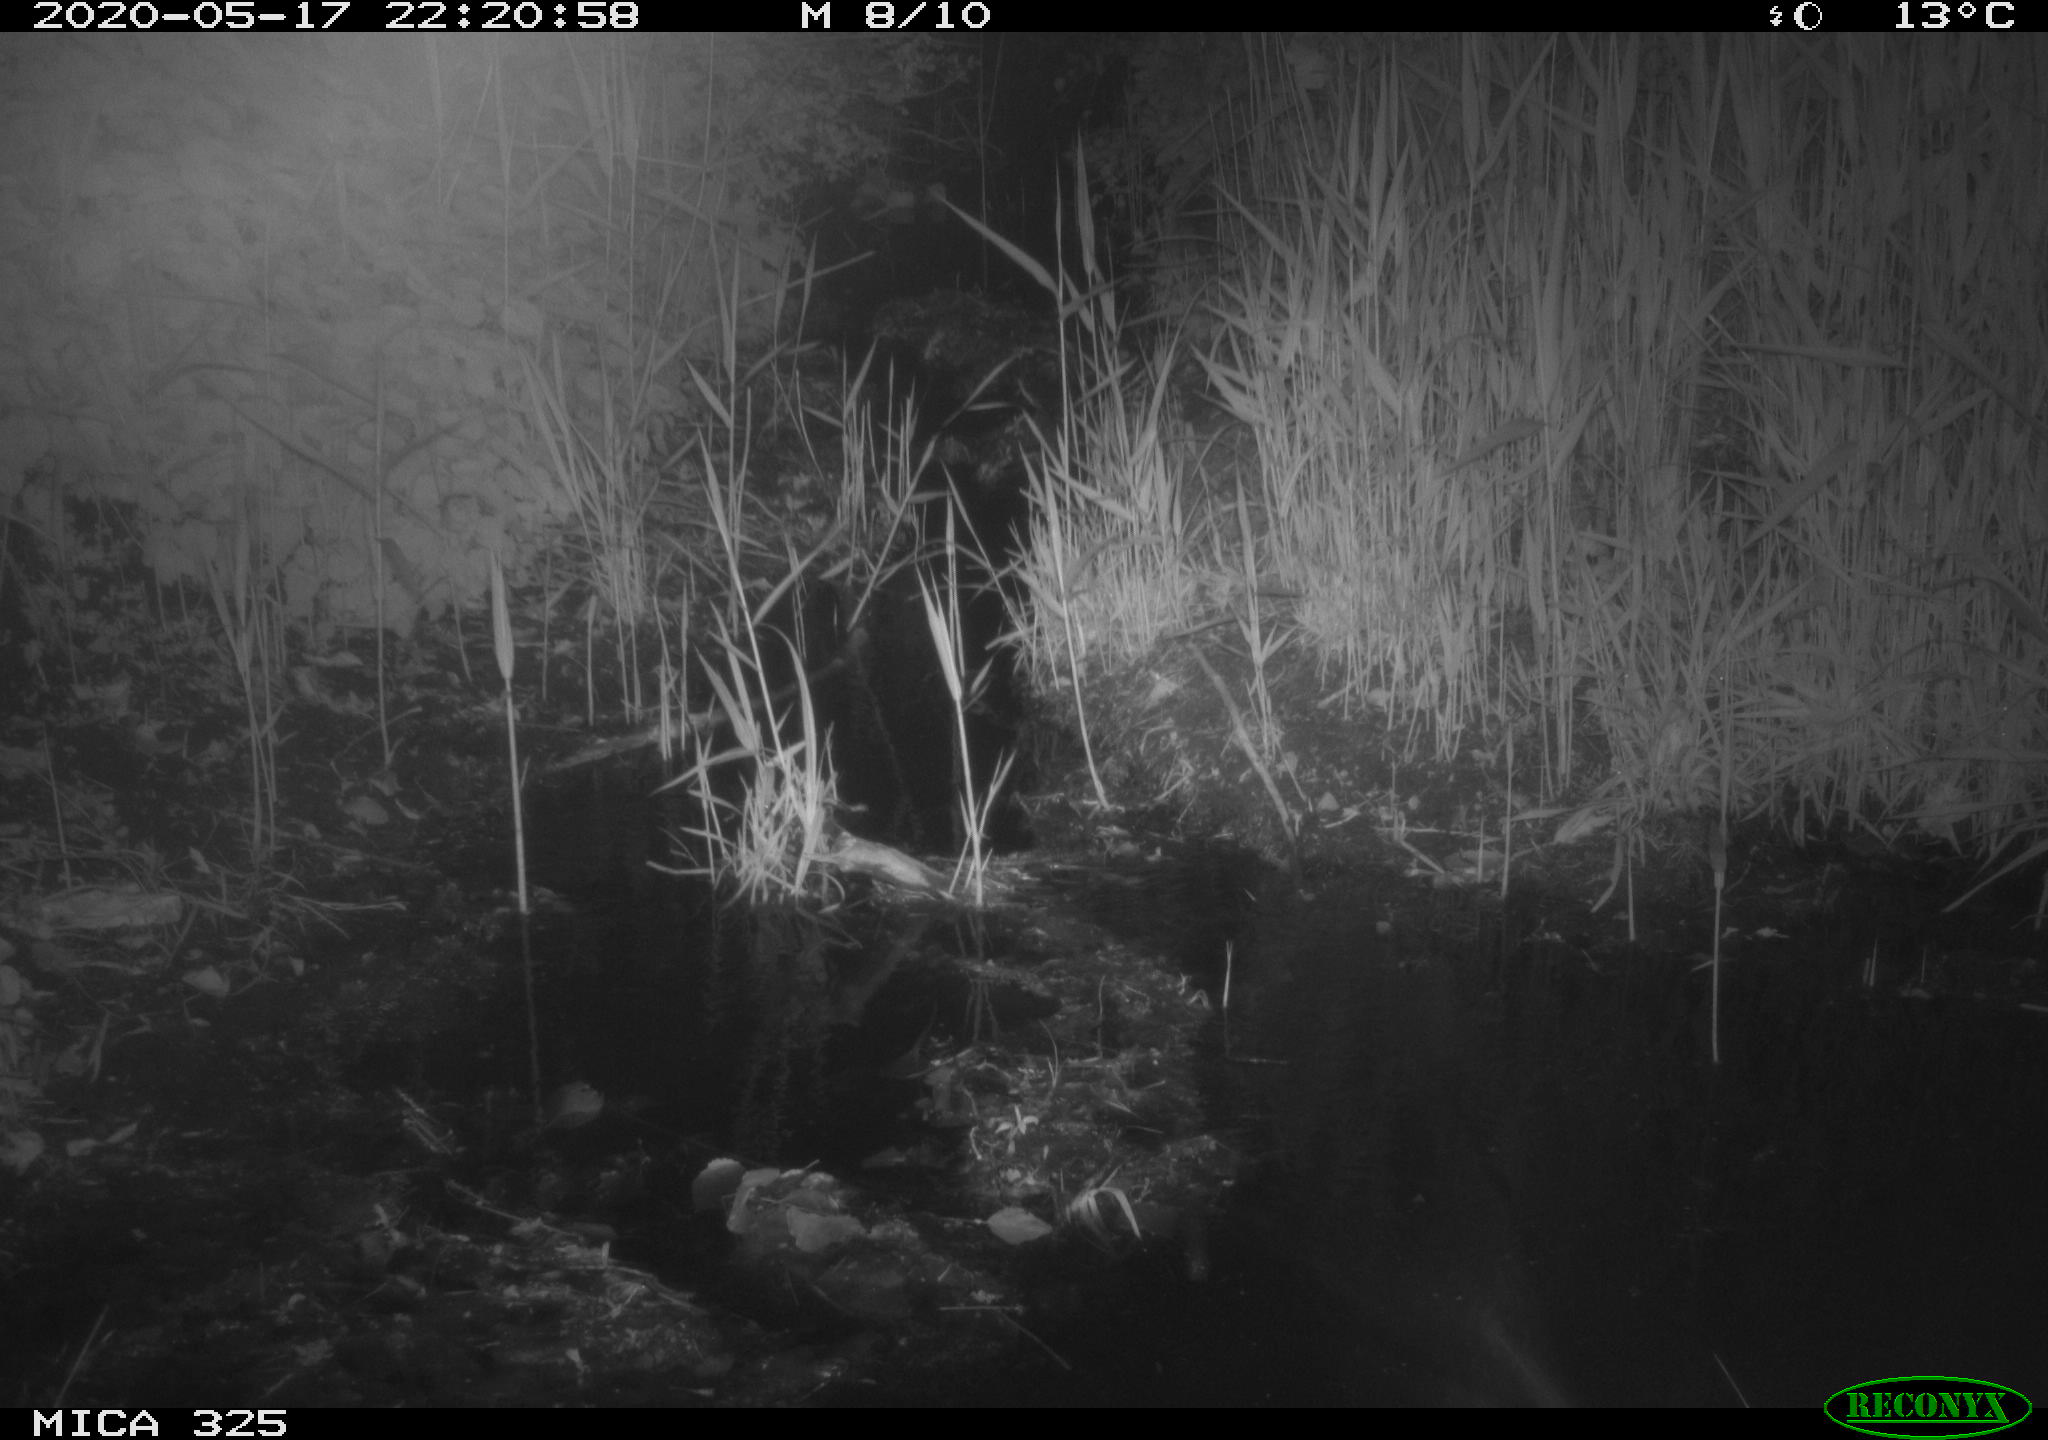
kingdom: Animalia
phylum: Chordata
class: Mammalia
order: Rodentia
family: Myocastoridae
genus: Myocastor
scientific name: Myocastor coypus
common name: Coypu
